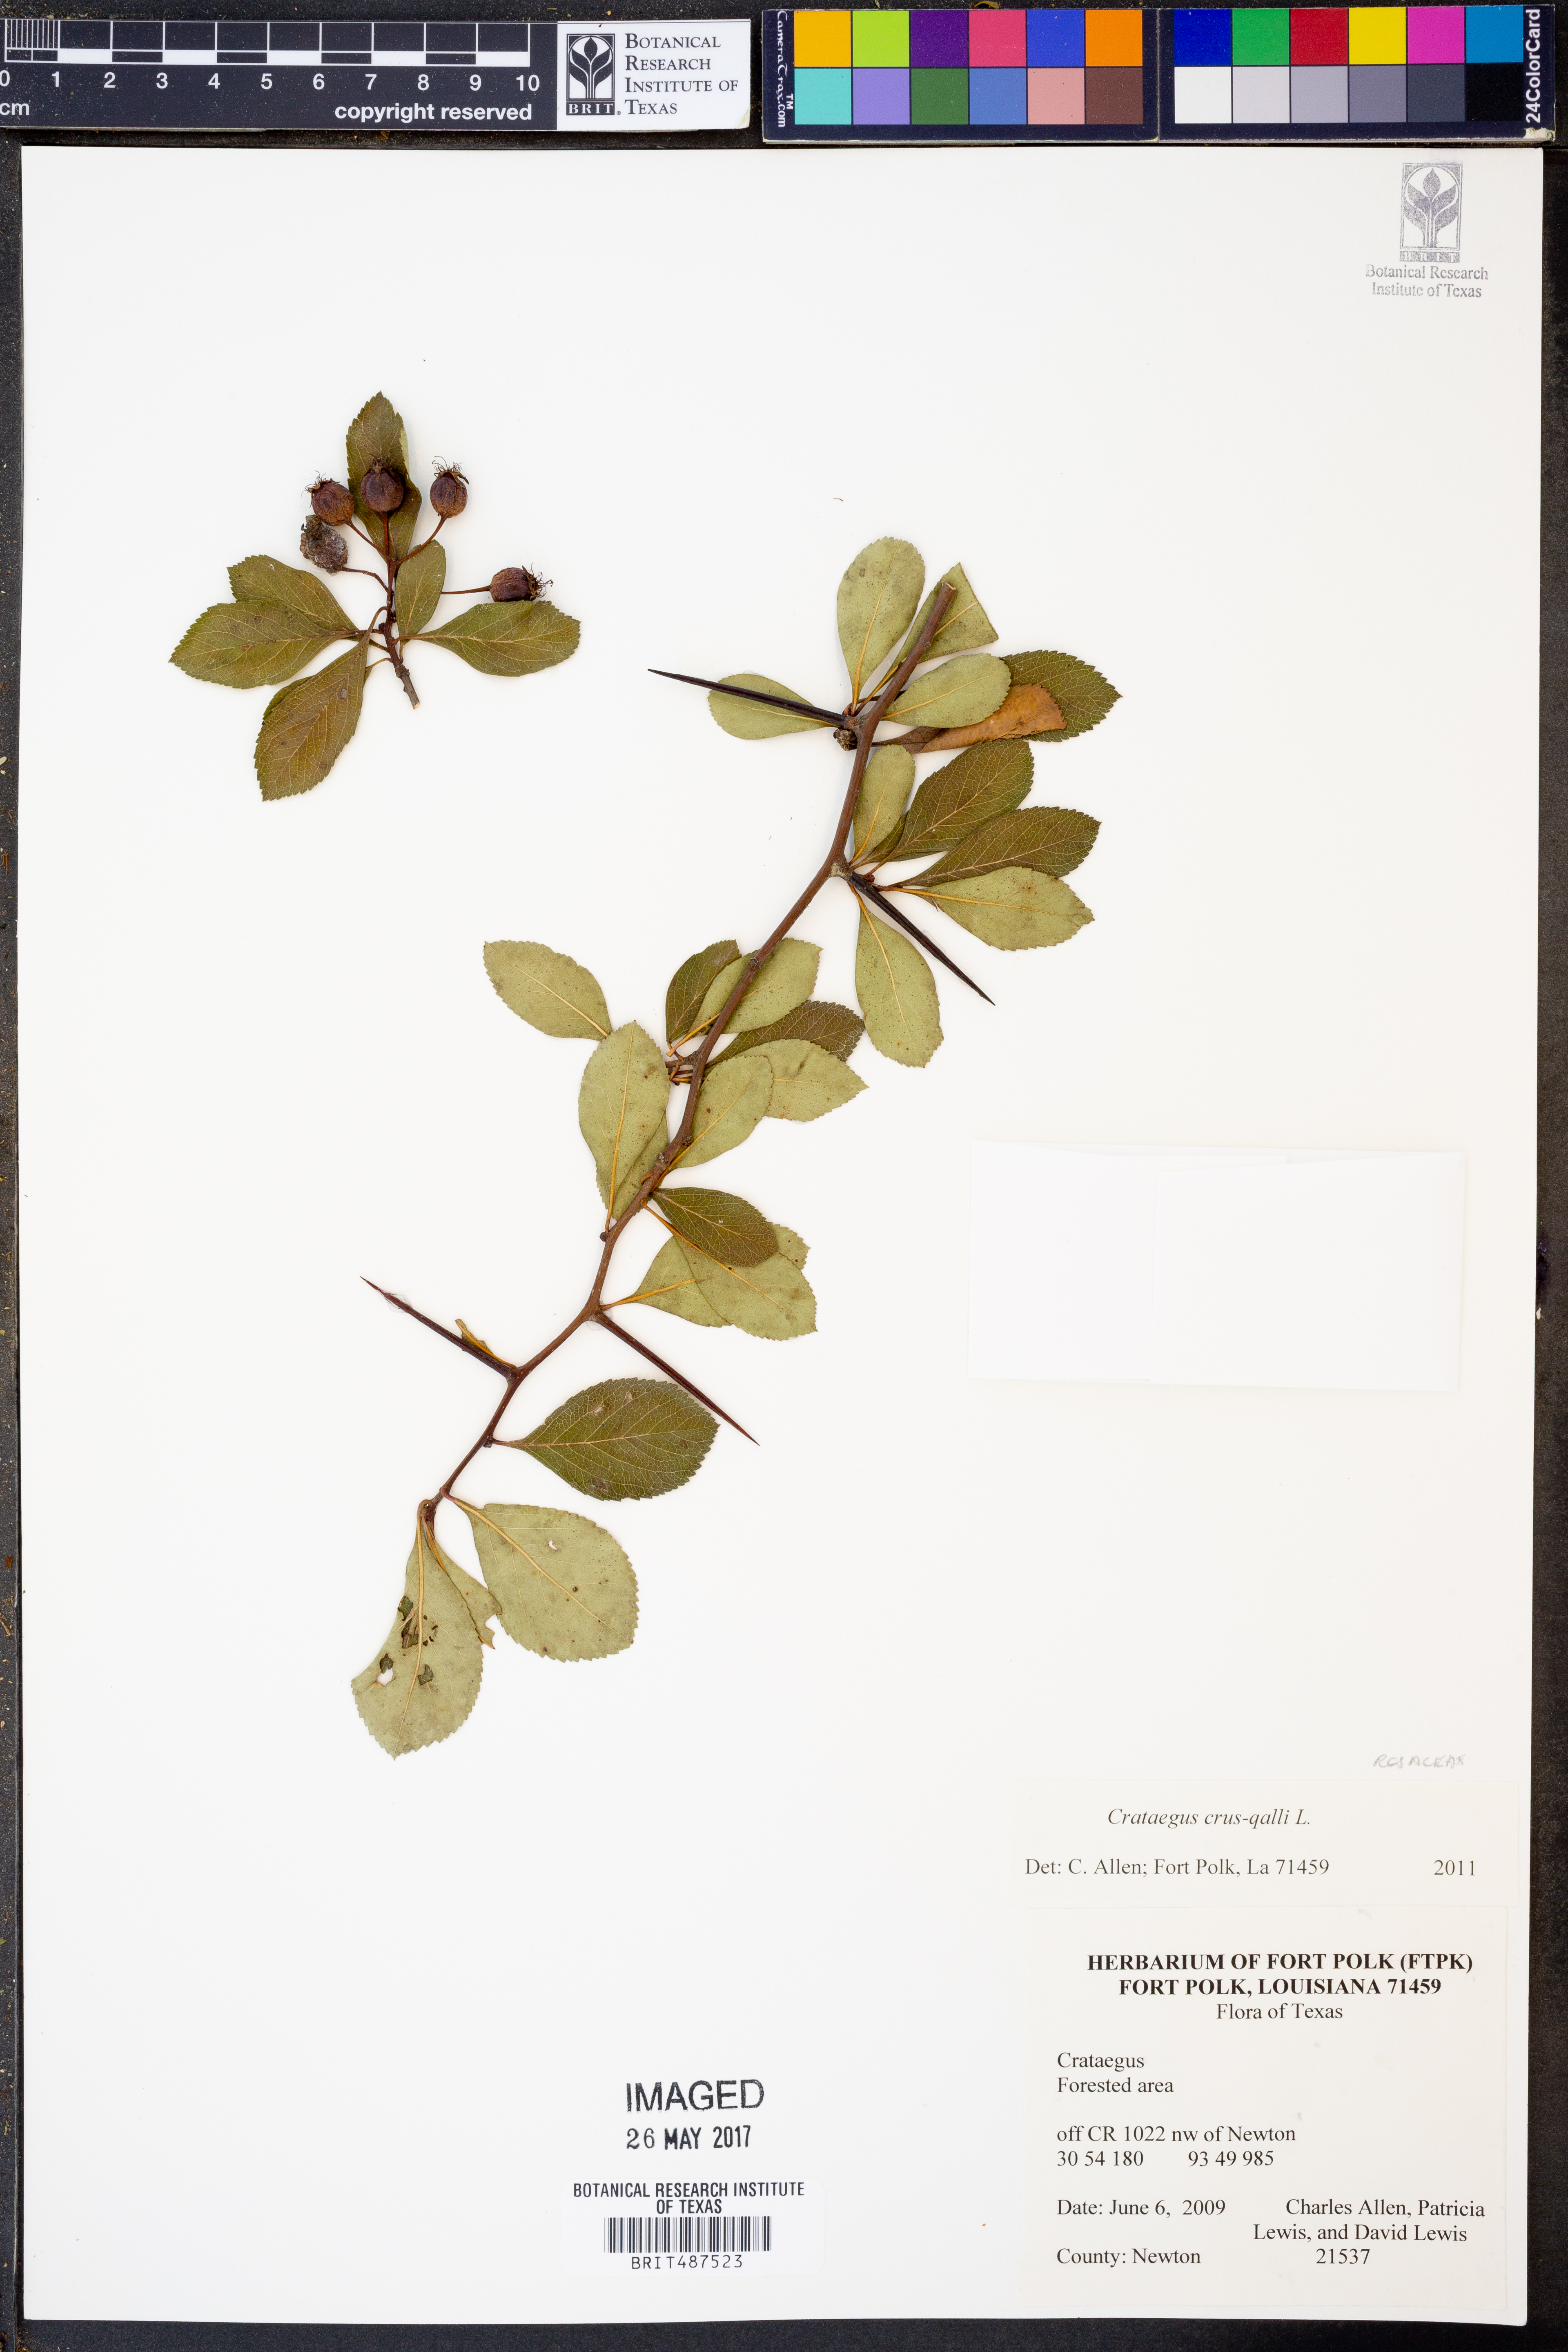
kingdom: Plantae
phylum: Tracheophyta
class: Magnoliopsida
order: Rosales
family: Rosaceae
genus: Crataegus
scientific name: Crataegus crus-galli
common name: Cockspurthorn
